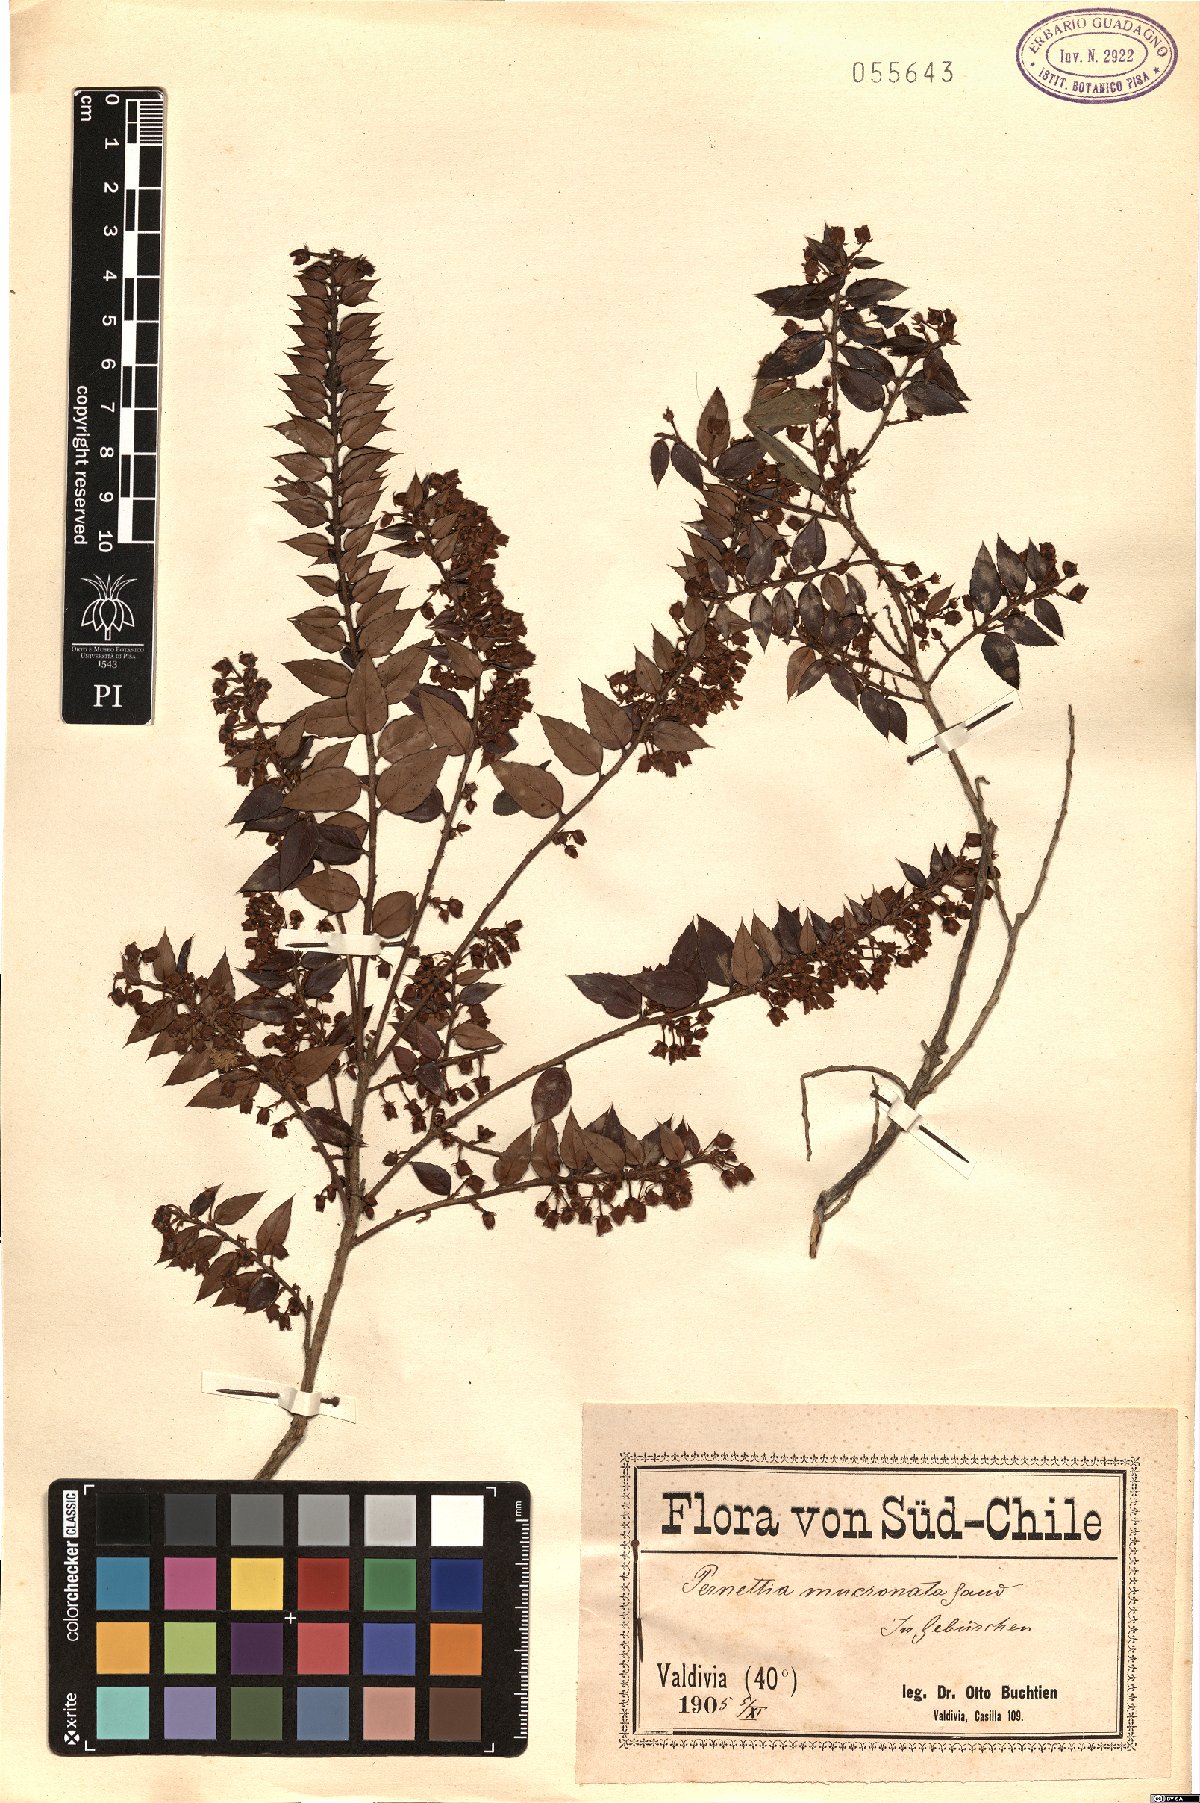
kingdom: Plantae
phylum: Tracheophyta
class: Magnoliopsida
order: Ericales
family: Ericaceae
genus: Gaultheria
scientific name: Gaultheria mucronata
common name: Prickly heath
